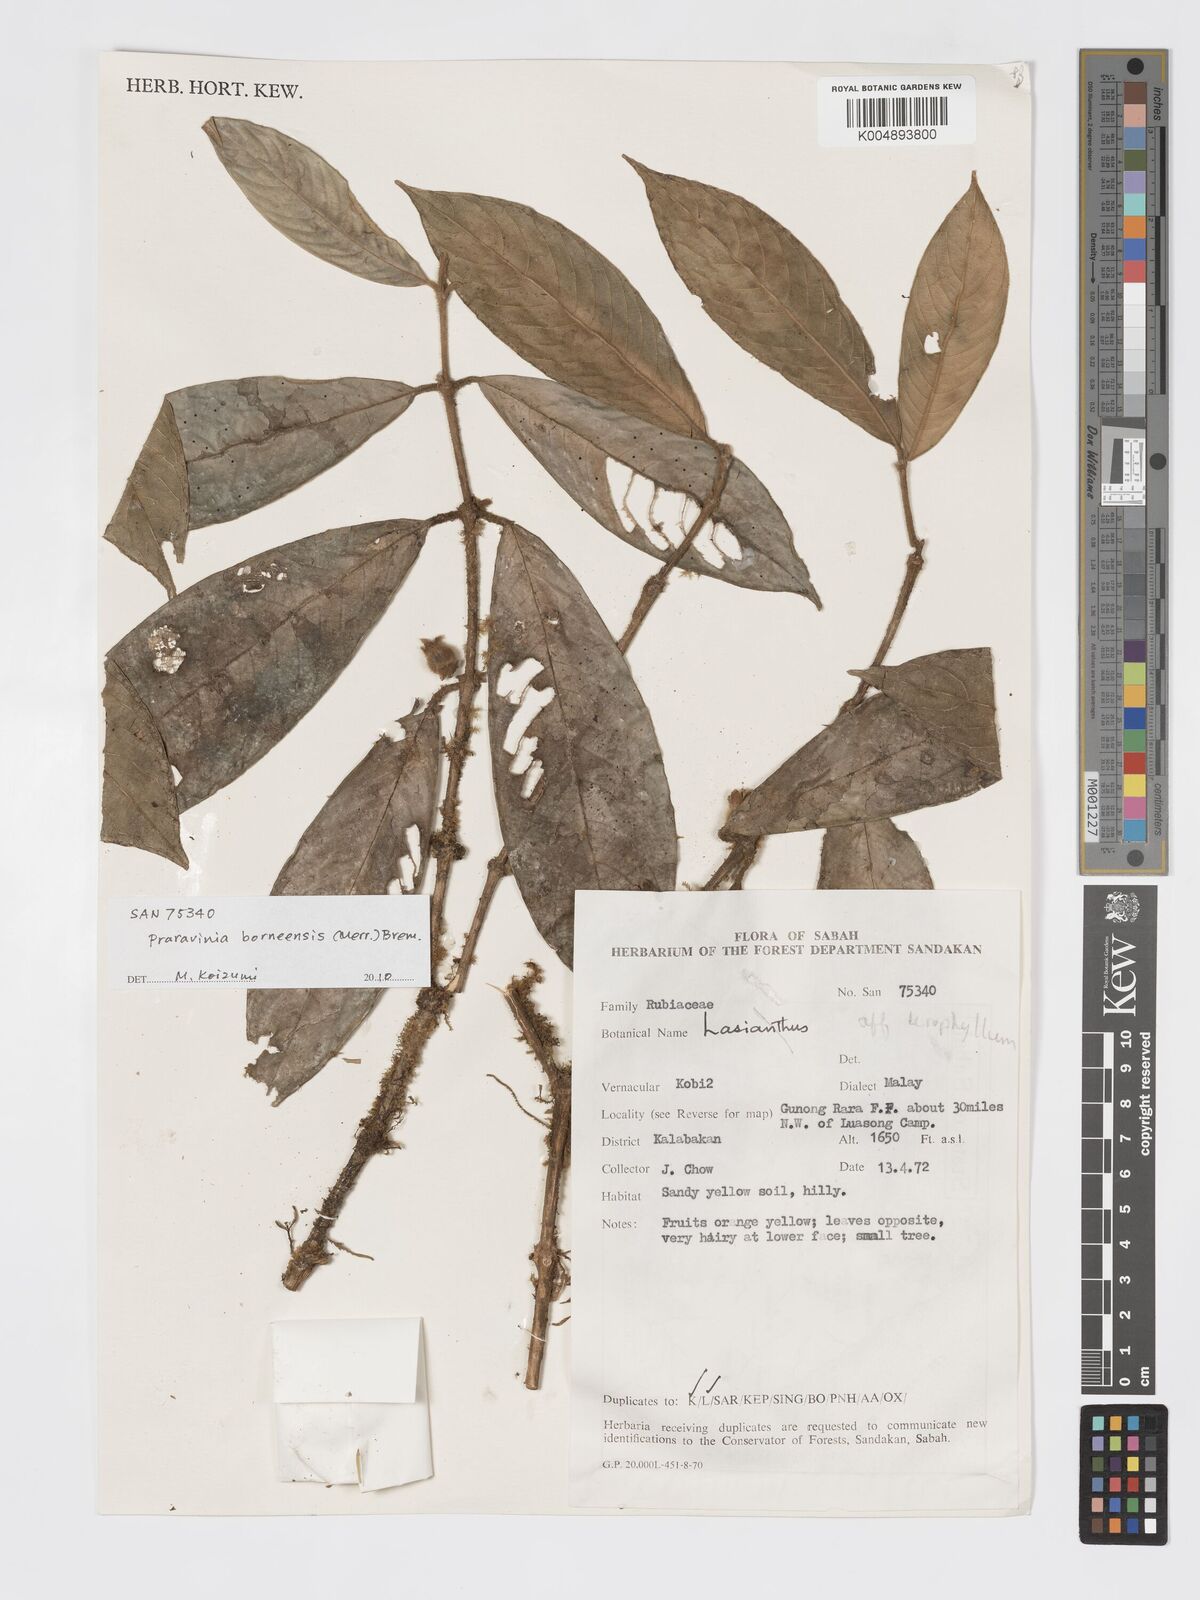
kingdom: Plantae
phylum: Tracheophyta
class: Magnoliopsida
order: Gentianales
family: Rubiaceae
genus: Praravinia
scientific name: Praravinia borneensis
